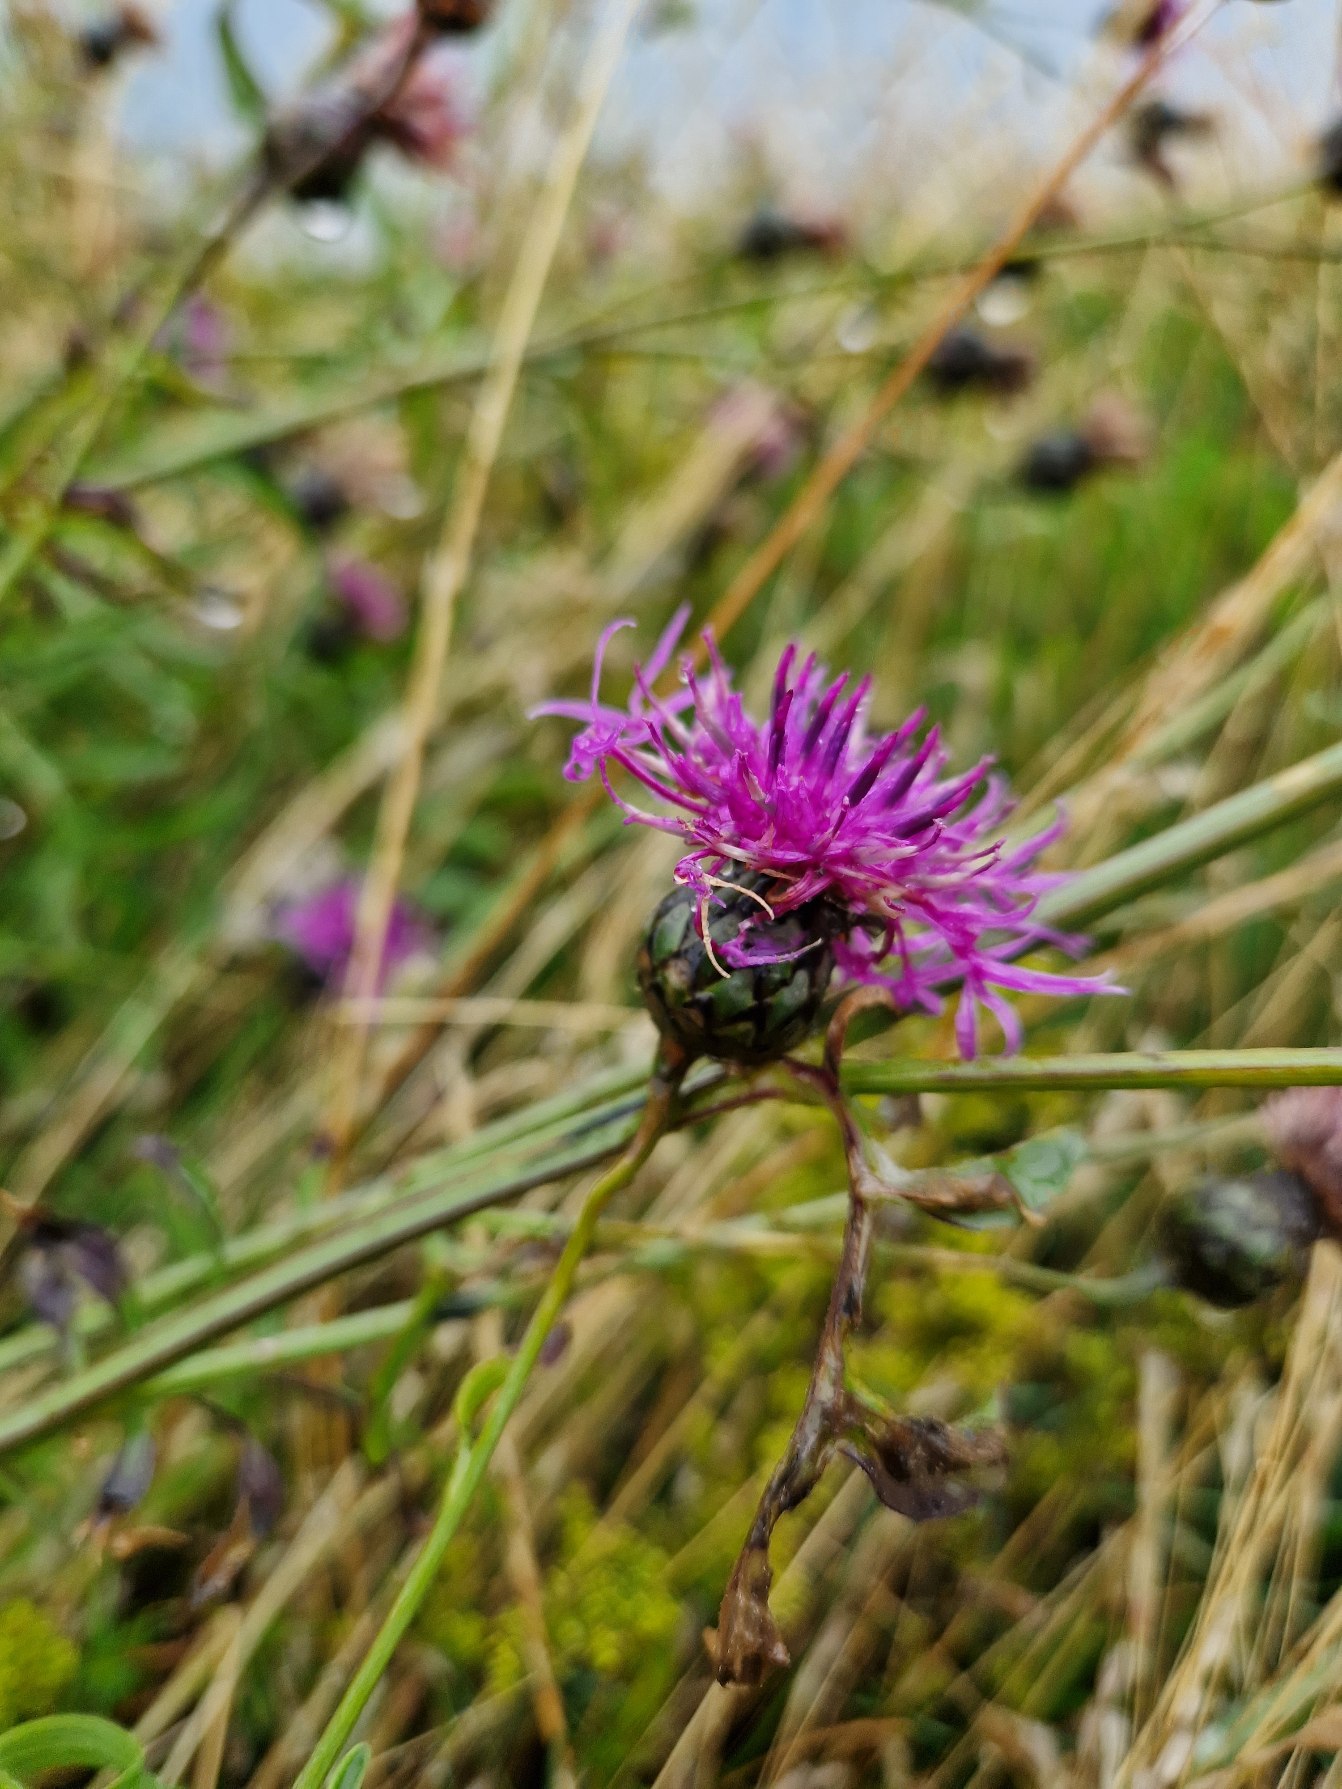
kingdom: Plantae
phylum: Tracheophyta
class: Magnoliopsida
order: Asterales
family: Asteraceae
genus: Centaurea
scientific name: Centaurea scabiosa
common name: Stor knopurt
